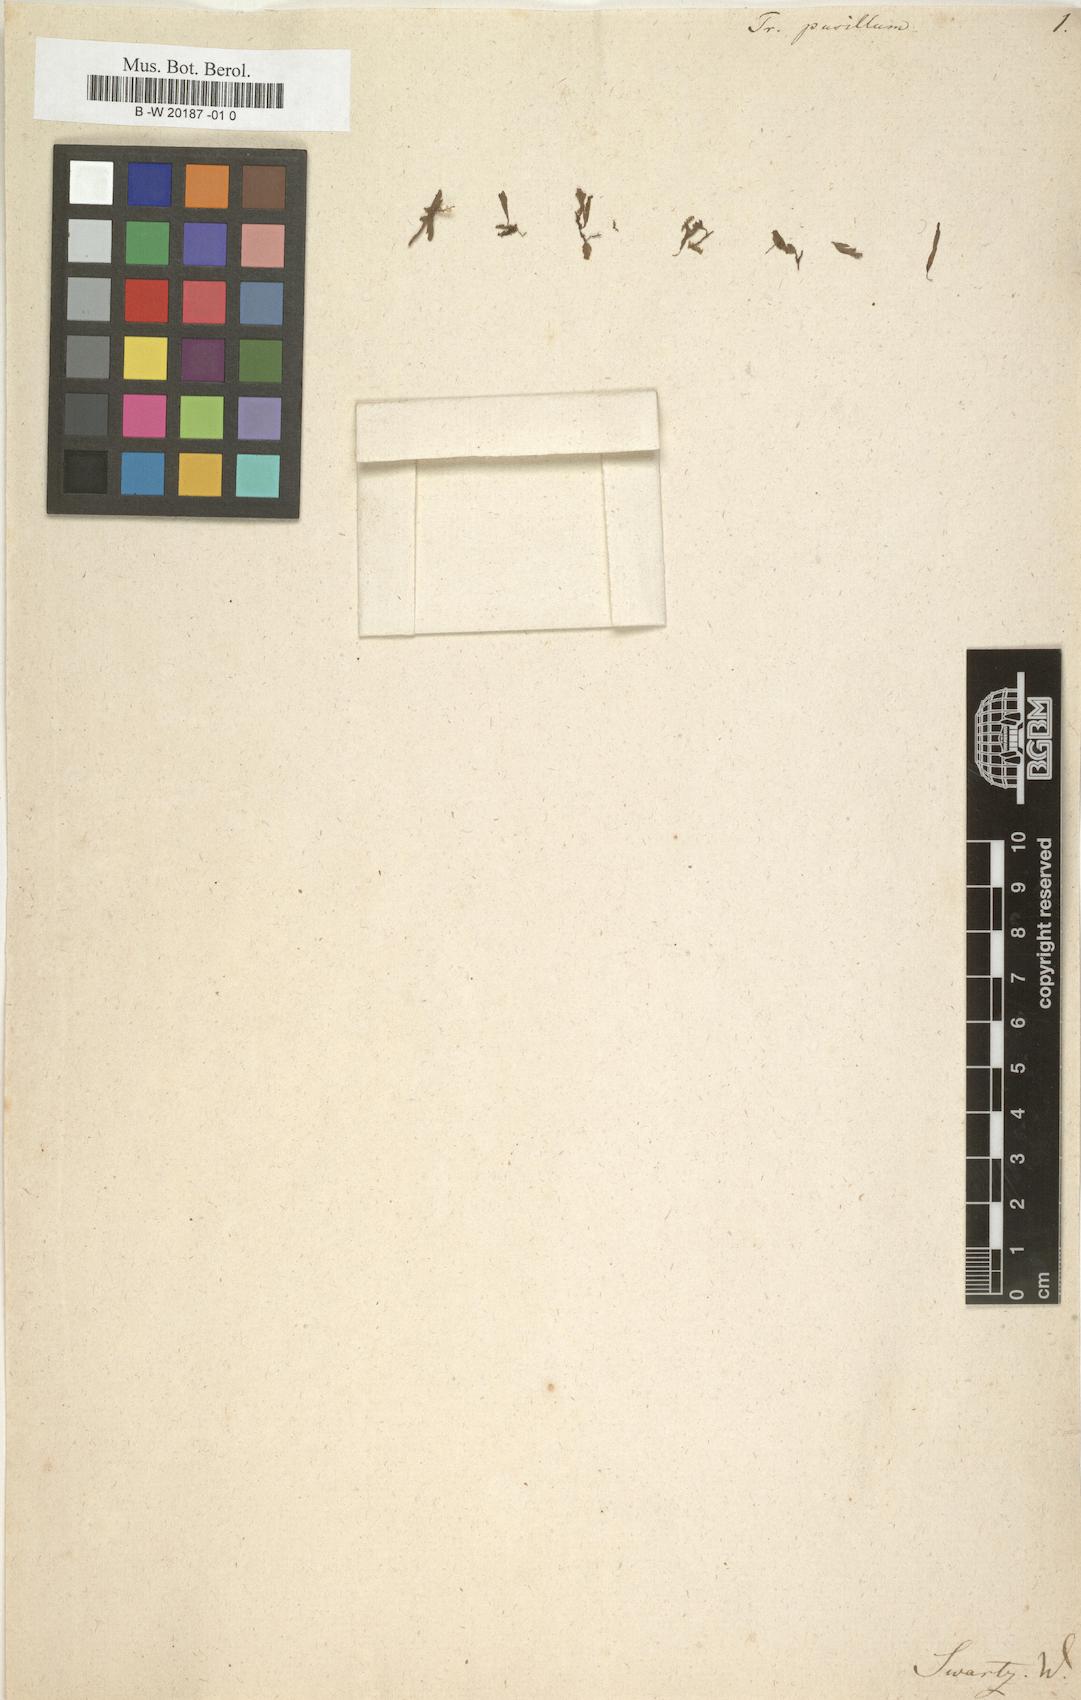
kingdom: Plantae
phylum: Tracheophyta
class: Polypodiopsida
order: Hymenophyllales
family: Hymenophyllaceae
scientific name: Hymenophyllaceae
